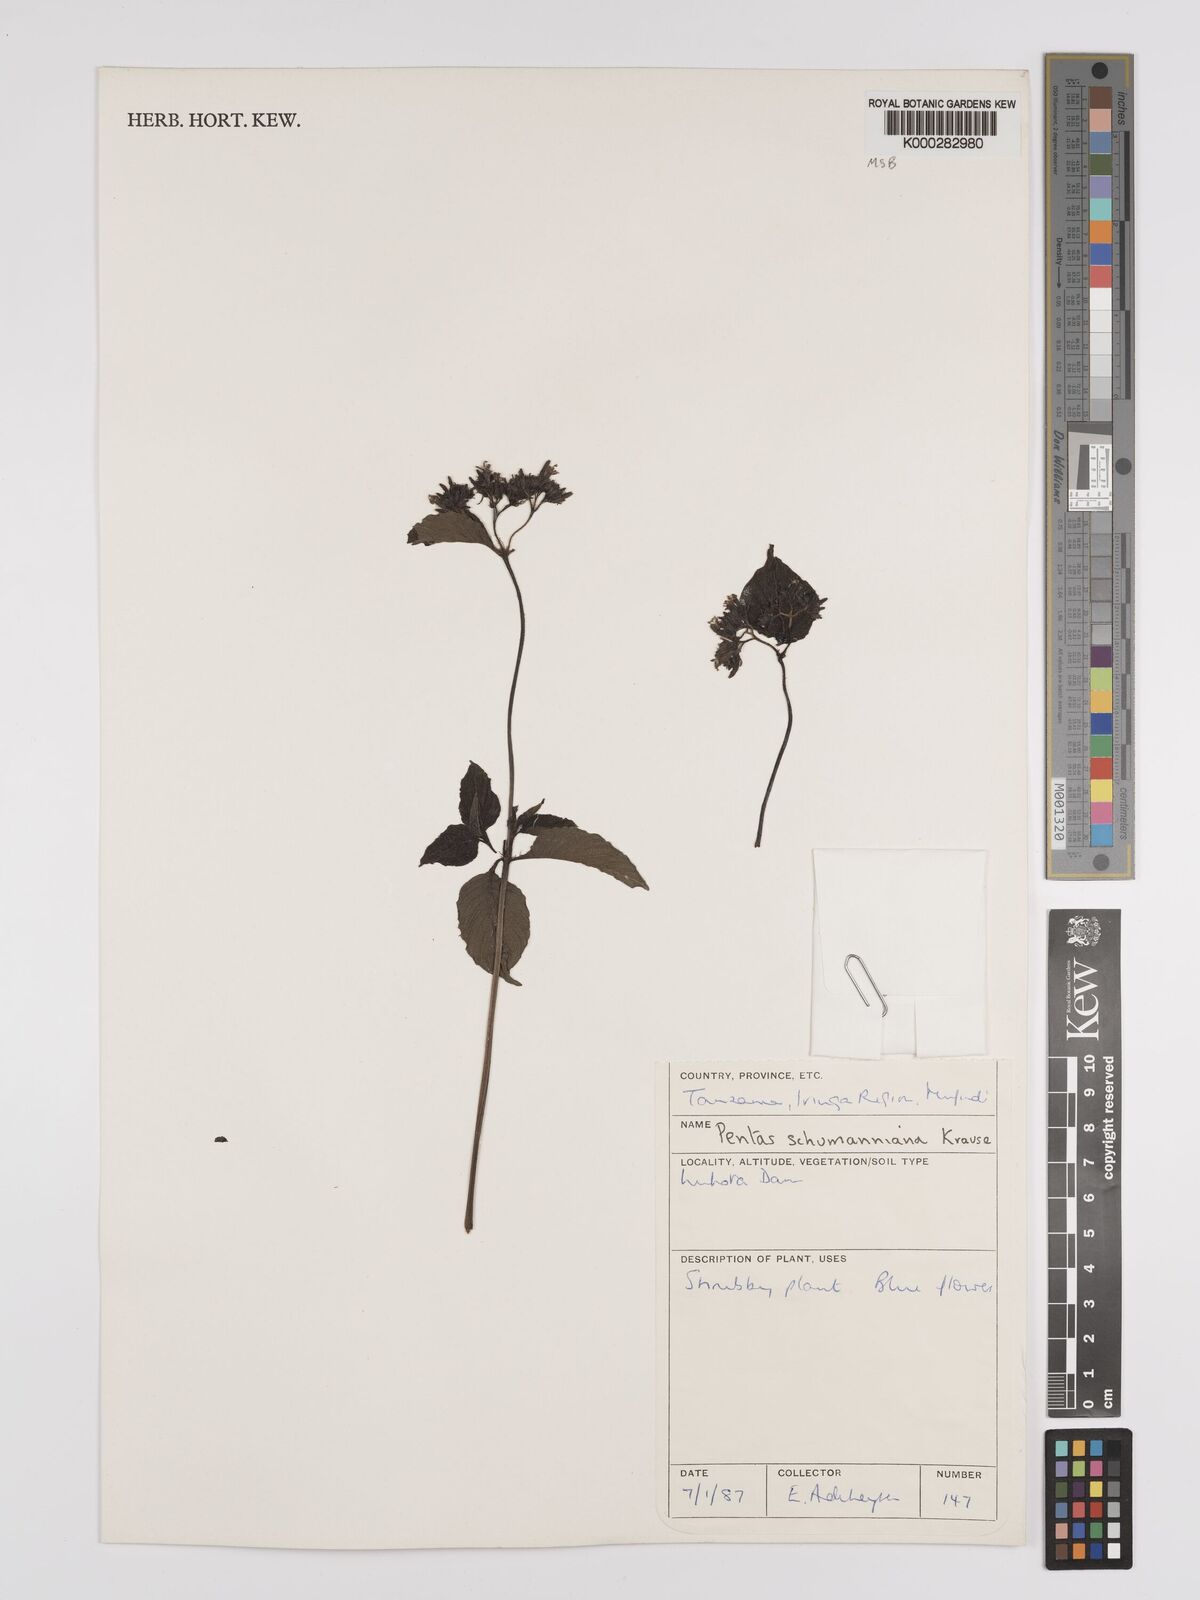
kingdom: Plantae
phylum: Tracheophyta
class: Magnoliopsida
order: Gentianales
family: Rubiaceae
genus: Phyllopentas
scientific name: Phyllopentas schumanniana
